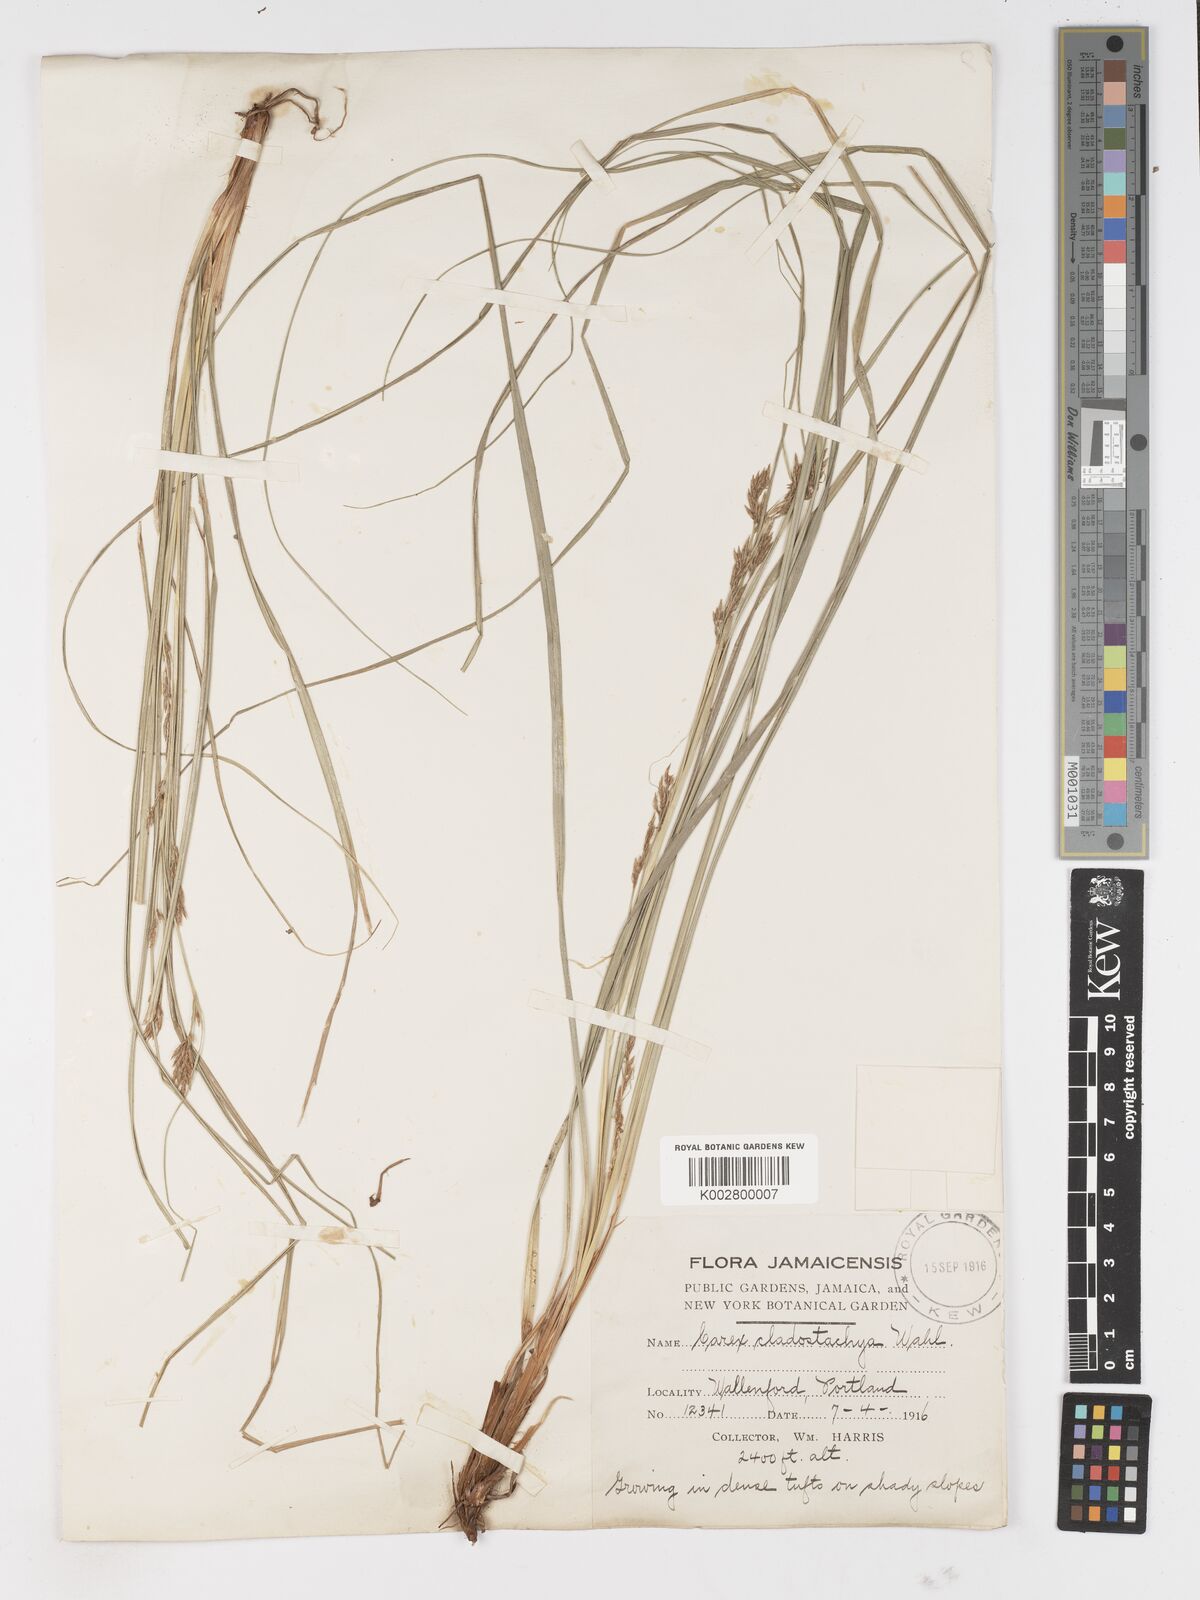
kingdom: Plantae
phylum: Tracheophyta
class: Liliopsida
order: Poales
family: Cyperaceae
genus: Carex
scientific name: Carex polystachya
